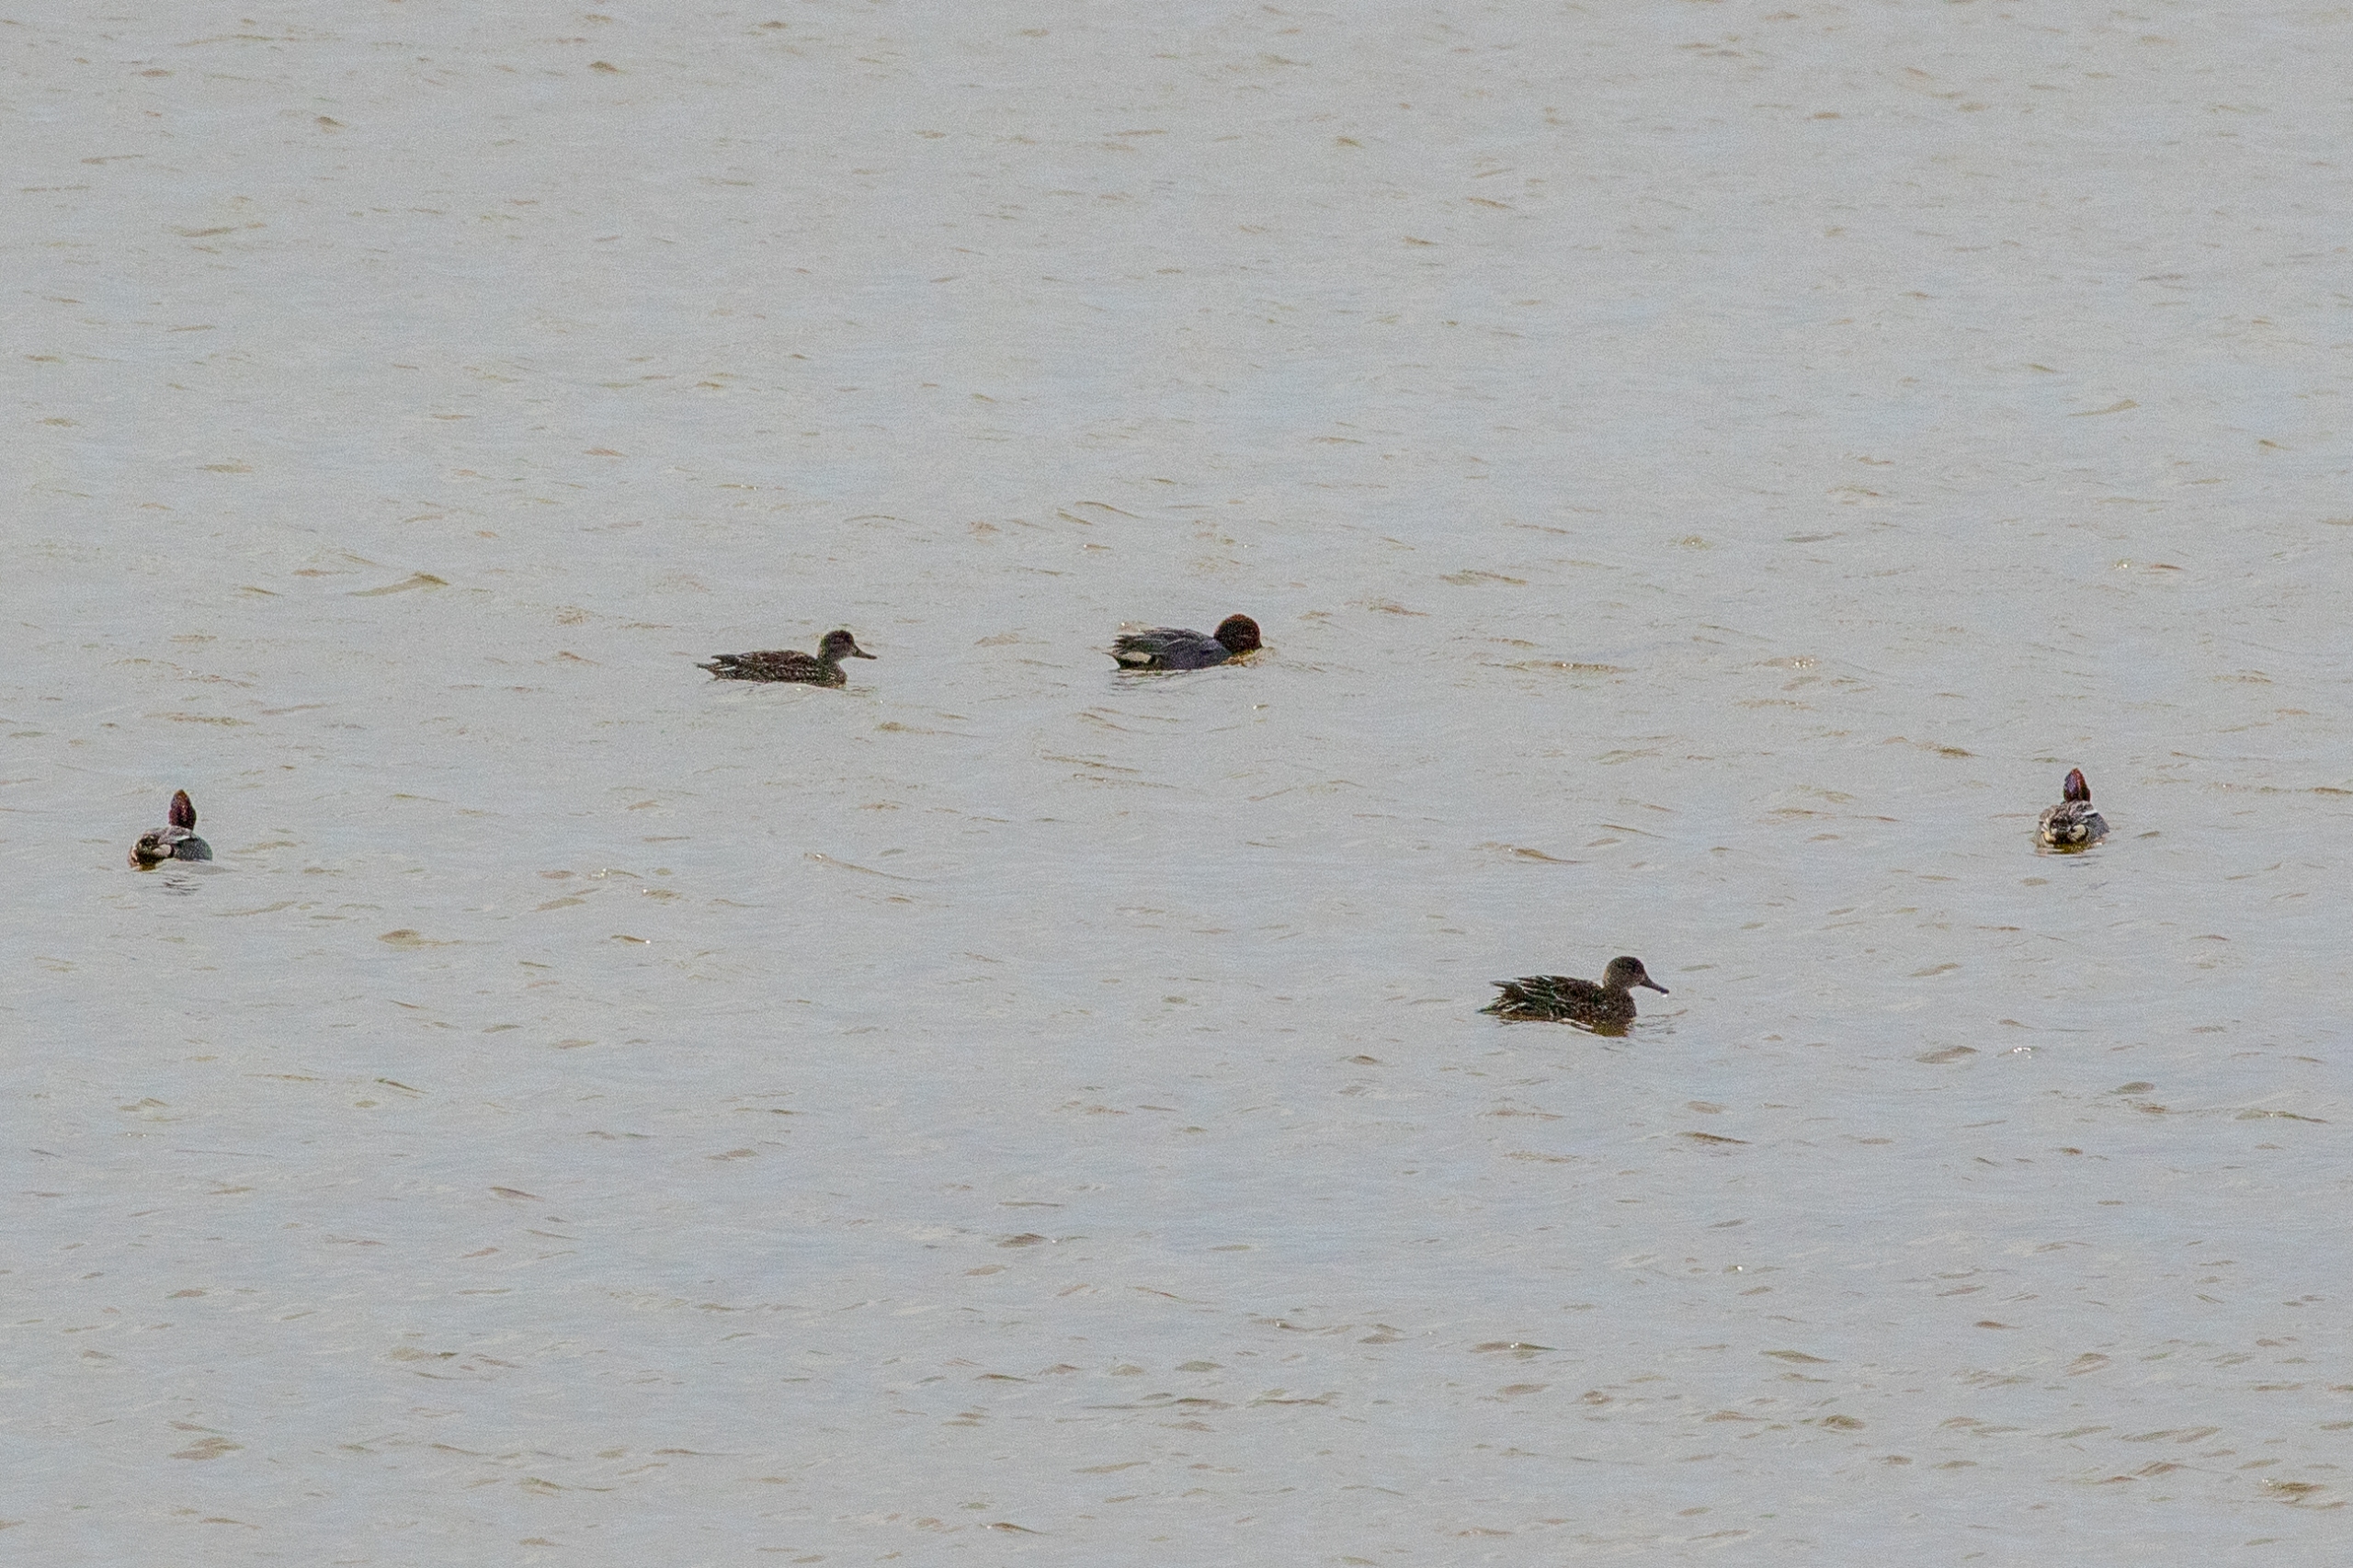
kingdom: Animalia
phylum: Chordata
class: Aves
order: Anseriformes
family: Anatidae
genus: Anas
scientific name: Anas crecca
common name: Krikand
